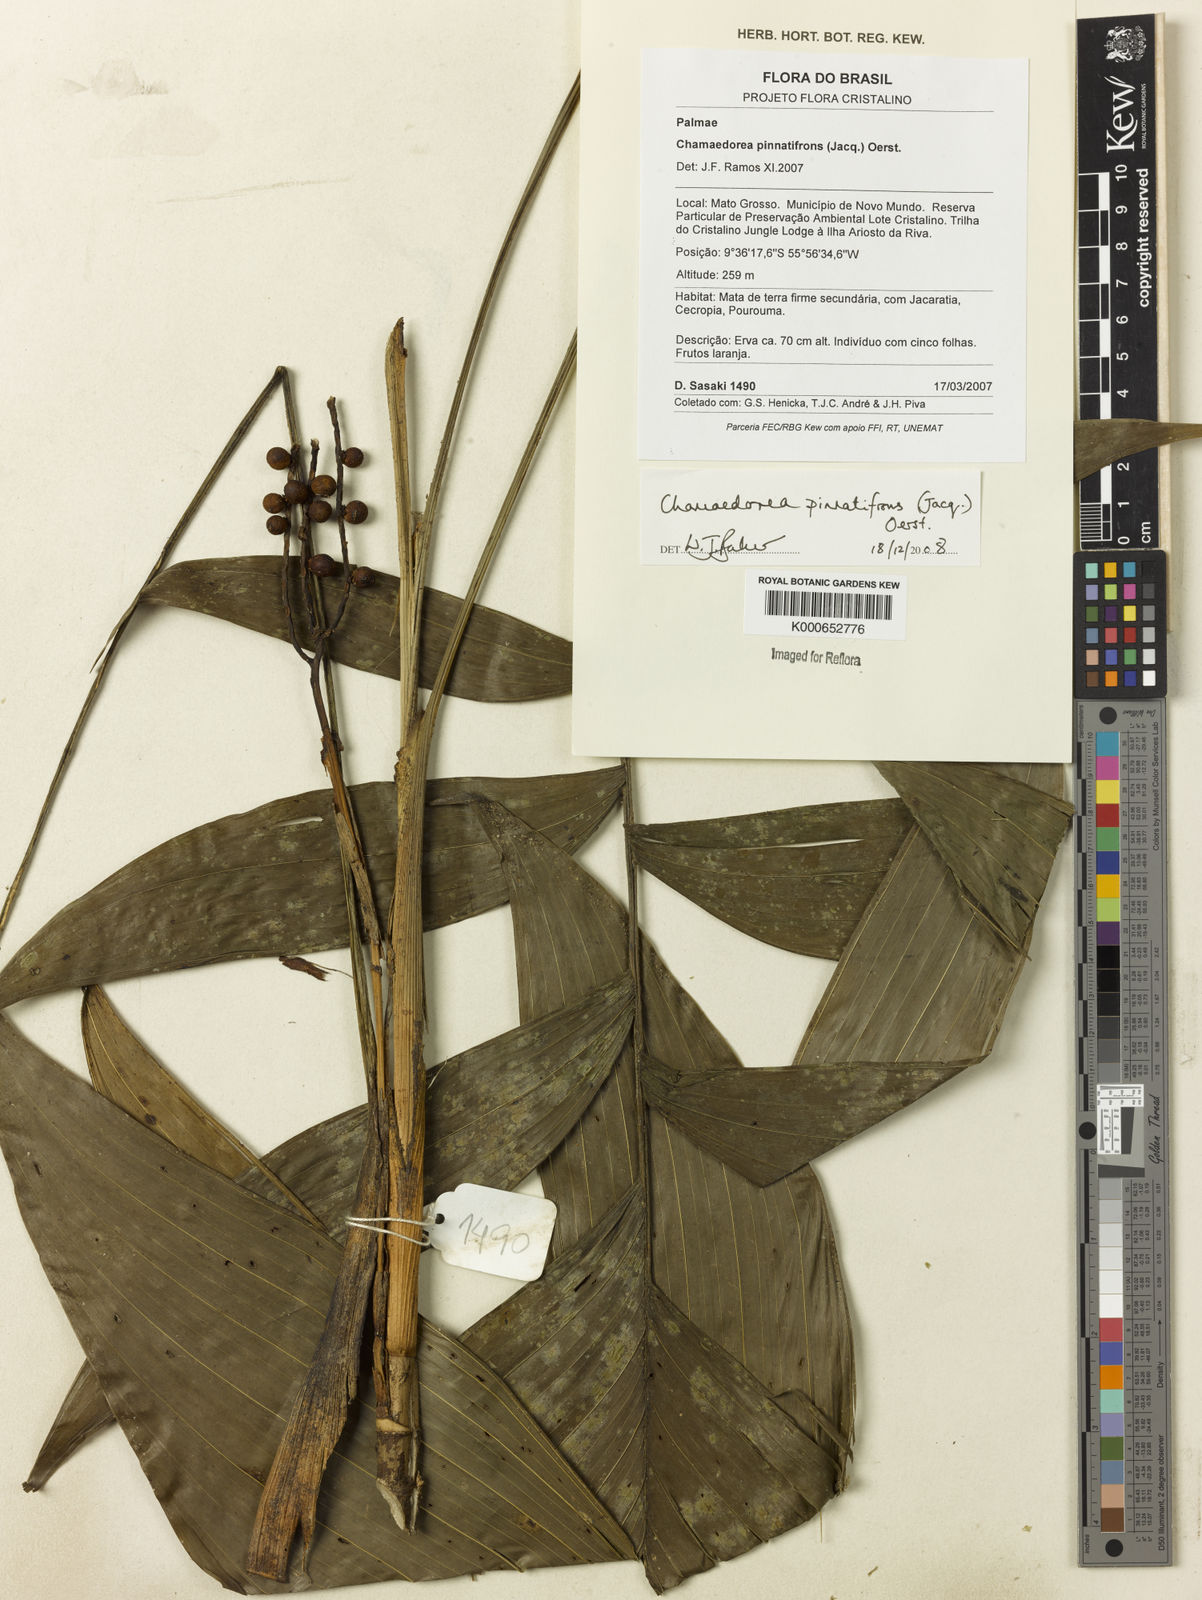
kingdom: Plantae
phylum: Tracheophyta
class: Liliopsida
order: Arecales
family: Arecaceae
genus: Chamaedorea
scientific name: Chamaedorea pinnatifrons
